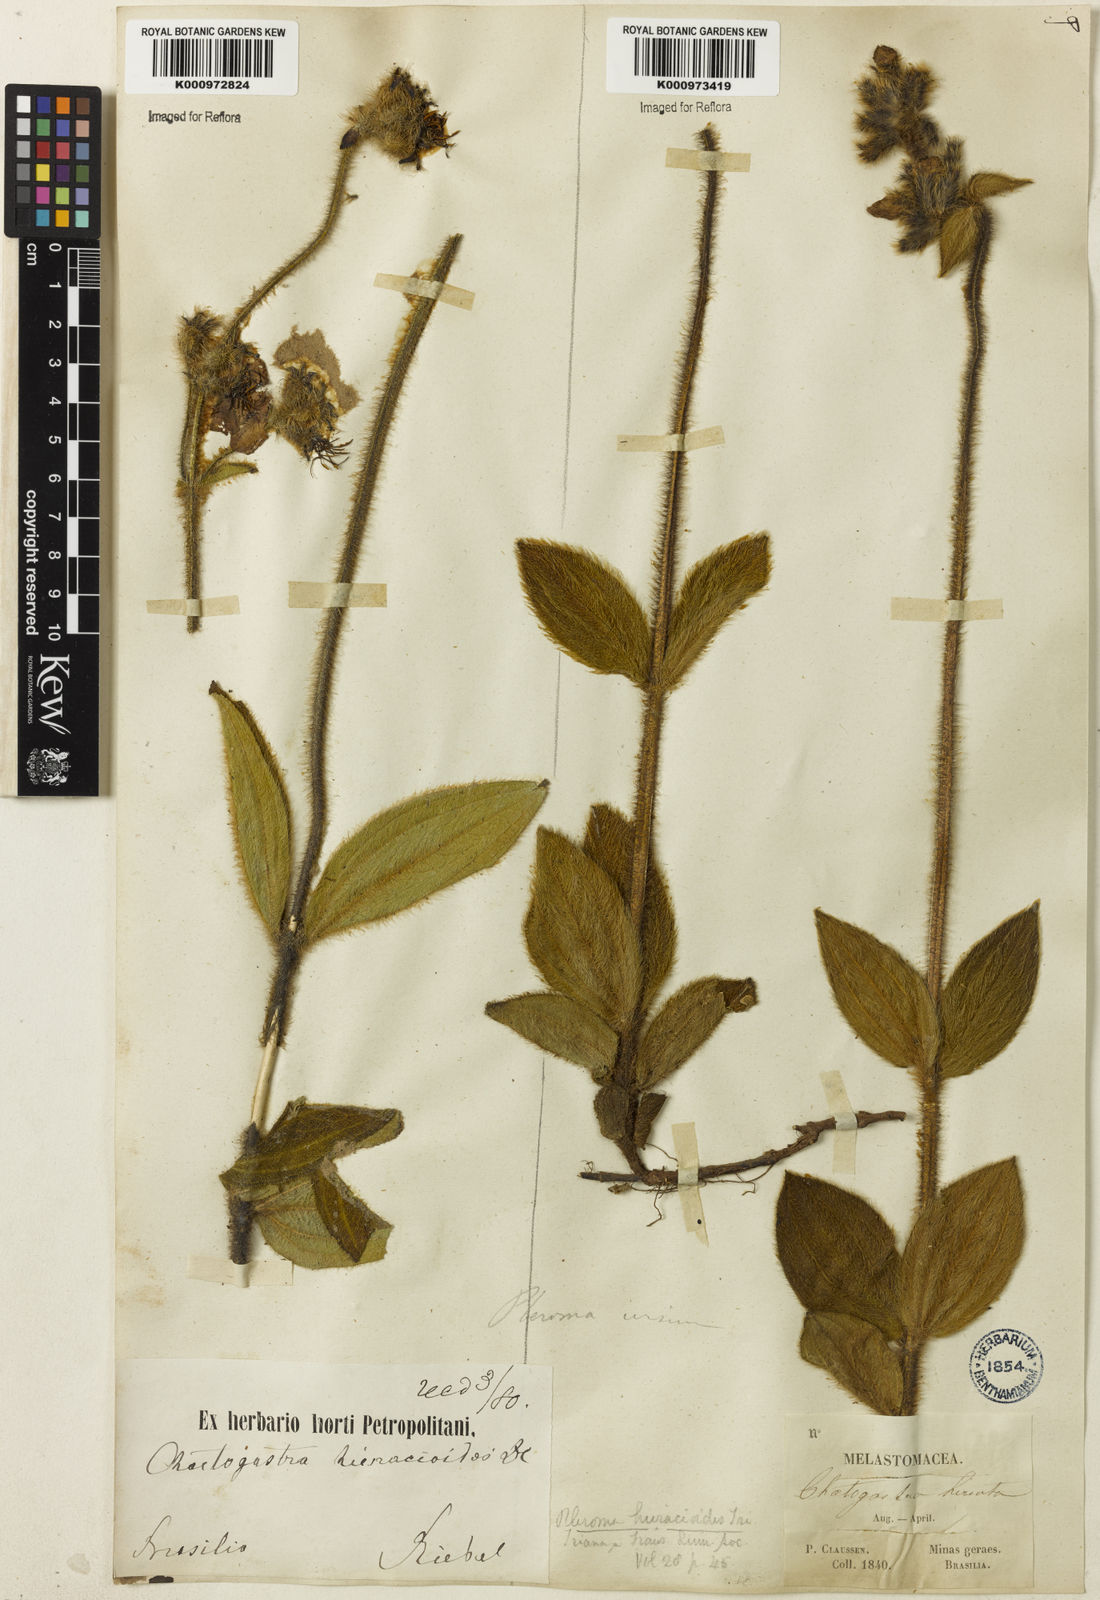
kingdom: Plantae
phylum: Tracheophyta
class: Magnoliopsida
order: Myrtales
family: Melastomataceae
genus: Chaetogastra
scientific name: Chaetogastra hieracioides
